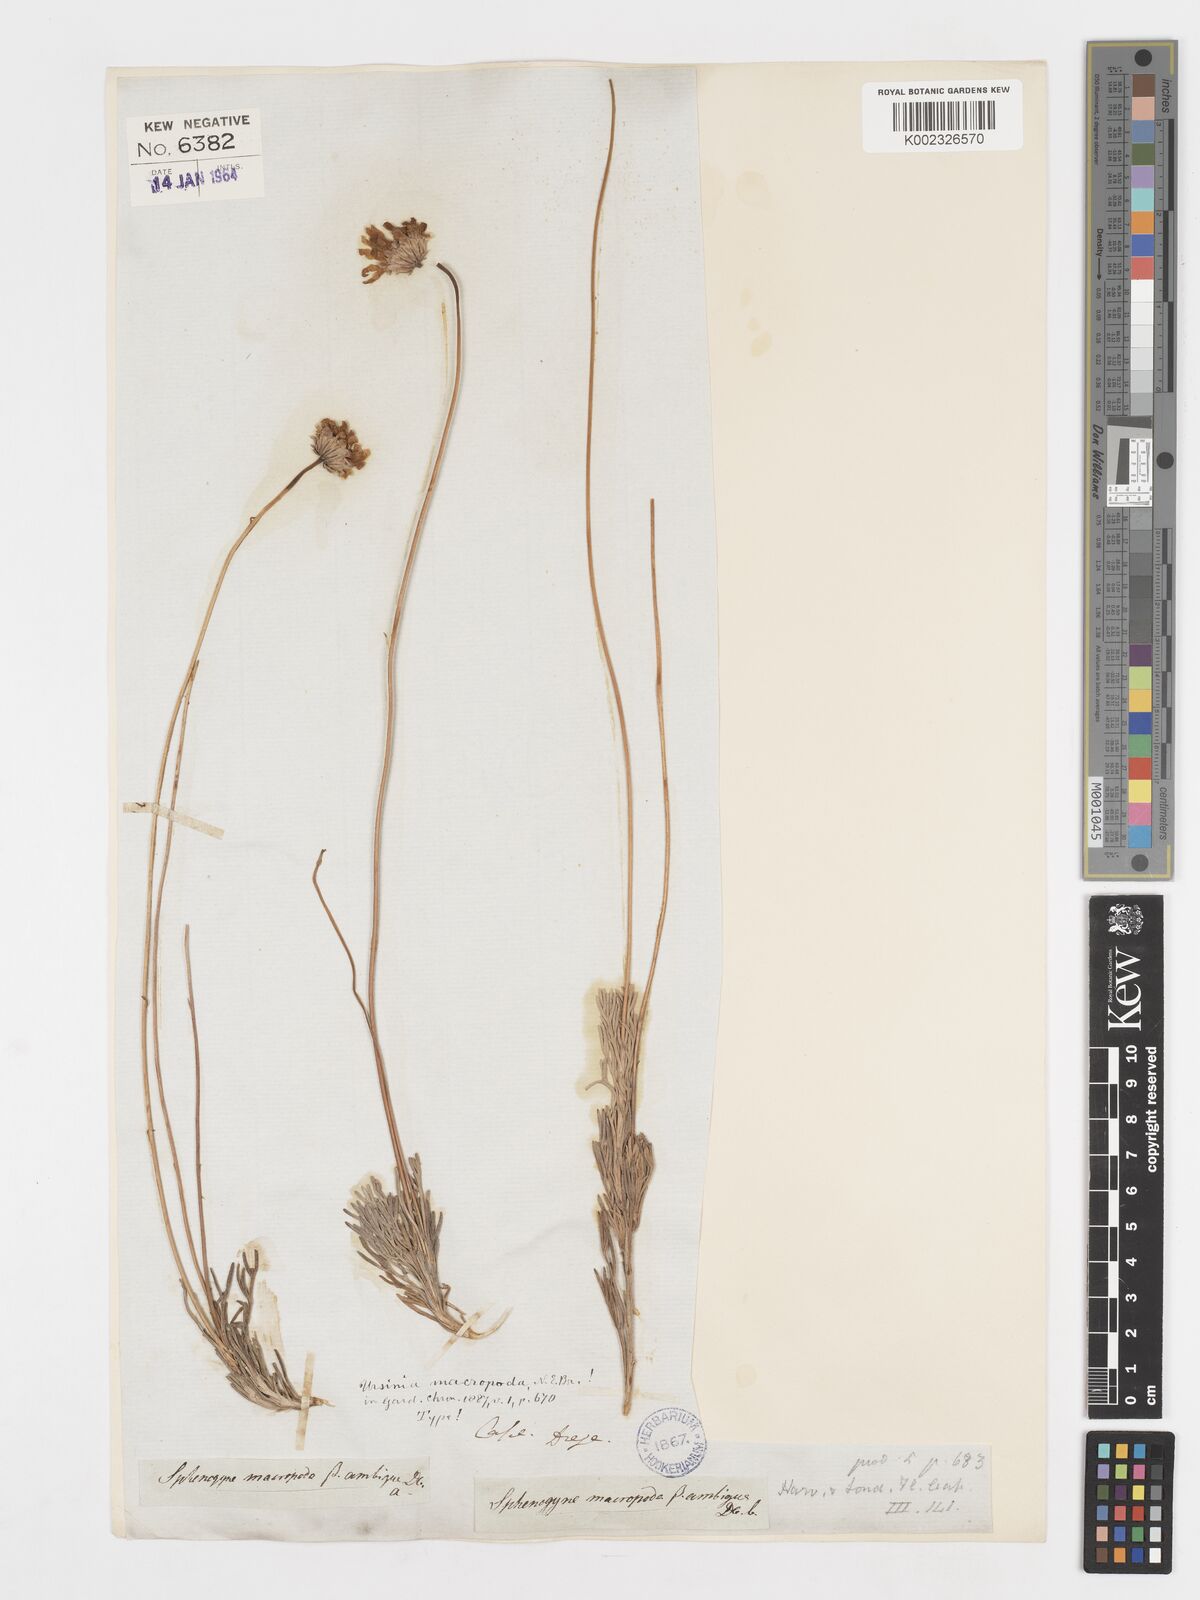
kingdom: Plantae
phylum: Tracheophyta
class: Magnoliopsida
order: Asterales
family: Asteraceae
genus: Ursinia
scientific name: Ursinia macropoda
